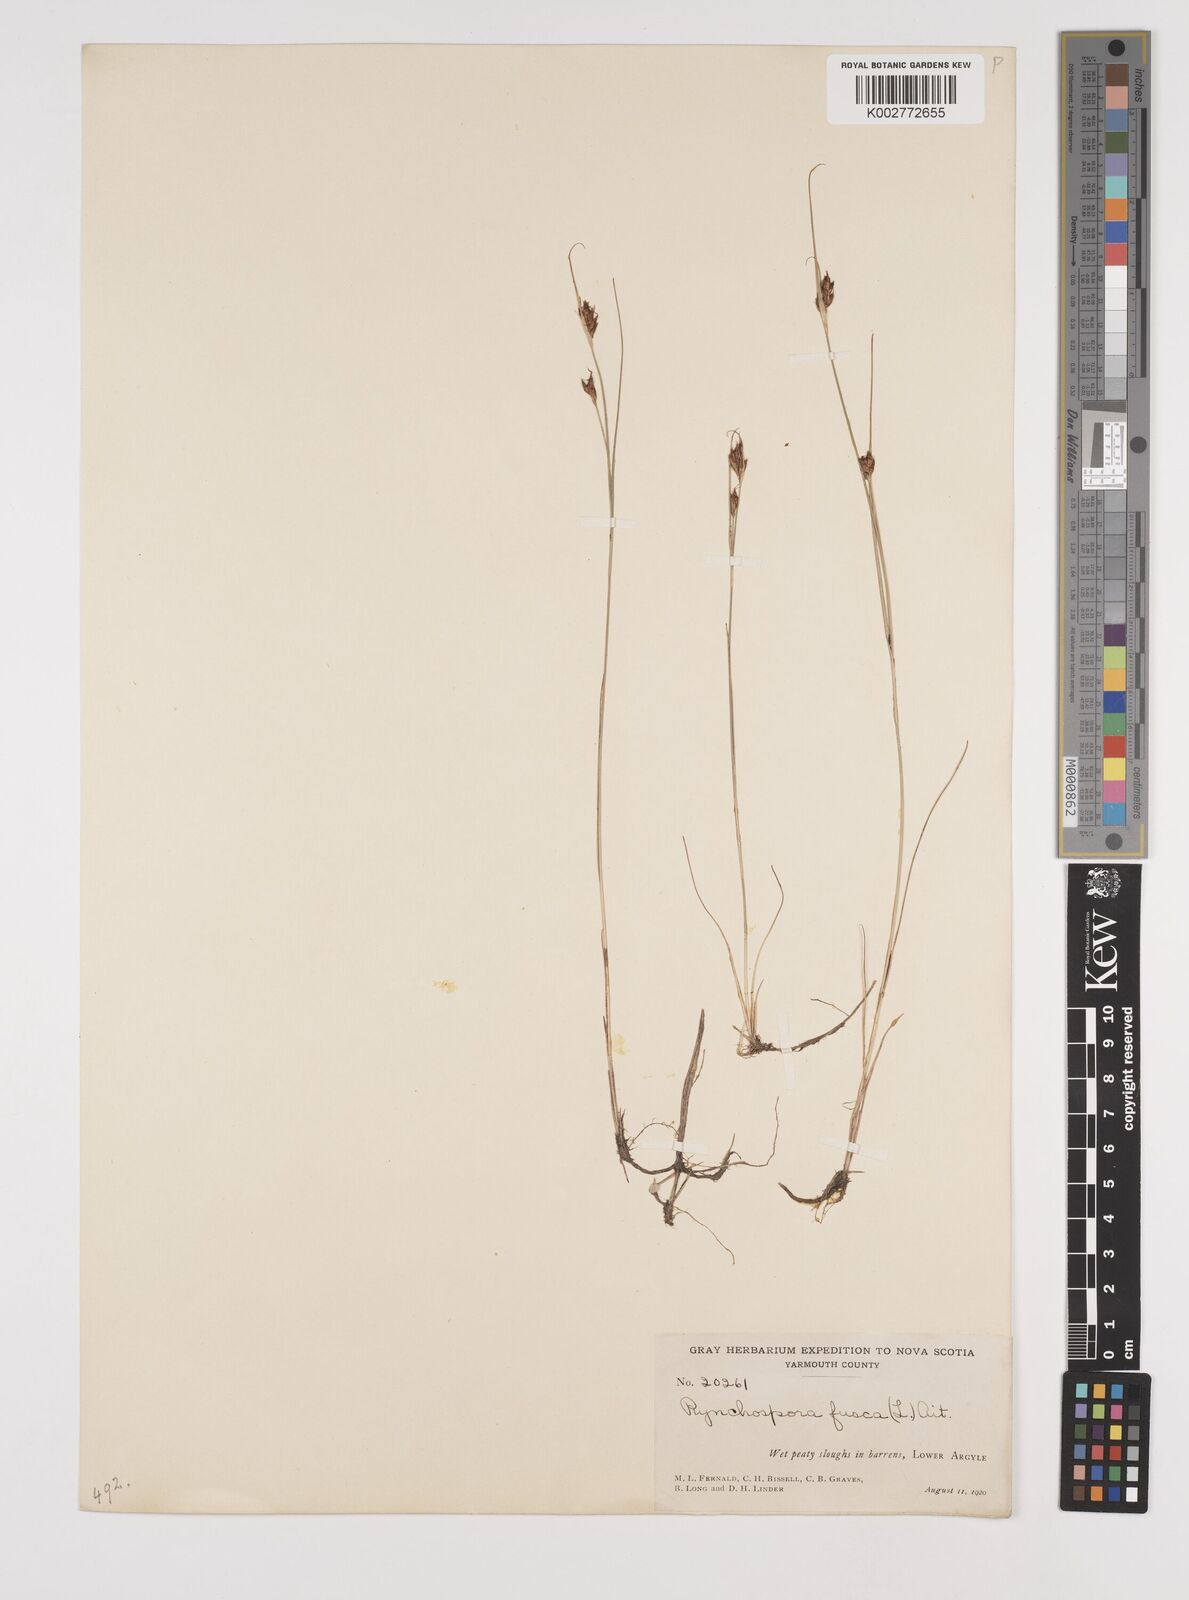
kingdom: Plantae
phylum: Tracheophyta
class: Liliopsida
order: Poales
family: Cyperaceae
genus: Rhynchospora
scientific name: Rhynchospora fusca
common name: Brown beak-sedge
